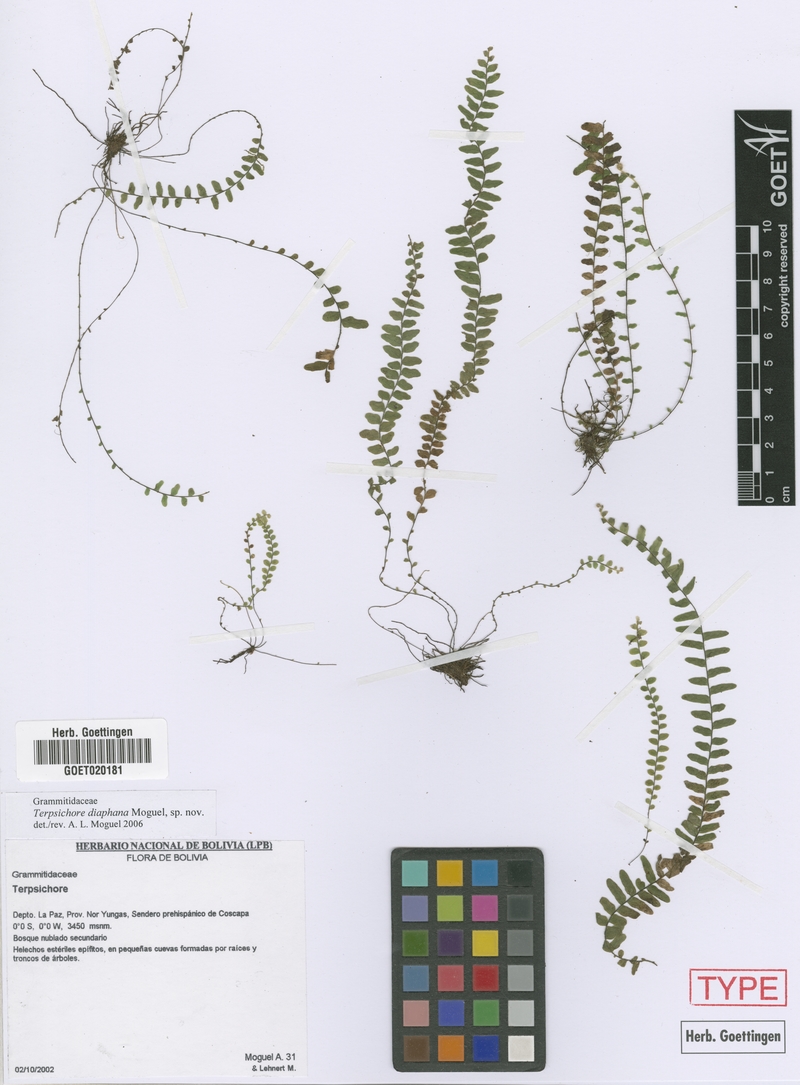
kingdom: Plantae
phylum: Tracheophyta
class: Polypodiopsida
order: Polypodiales
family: Polypodiaceae
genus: Alansmia
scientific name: Alansmia diaphana
